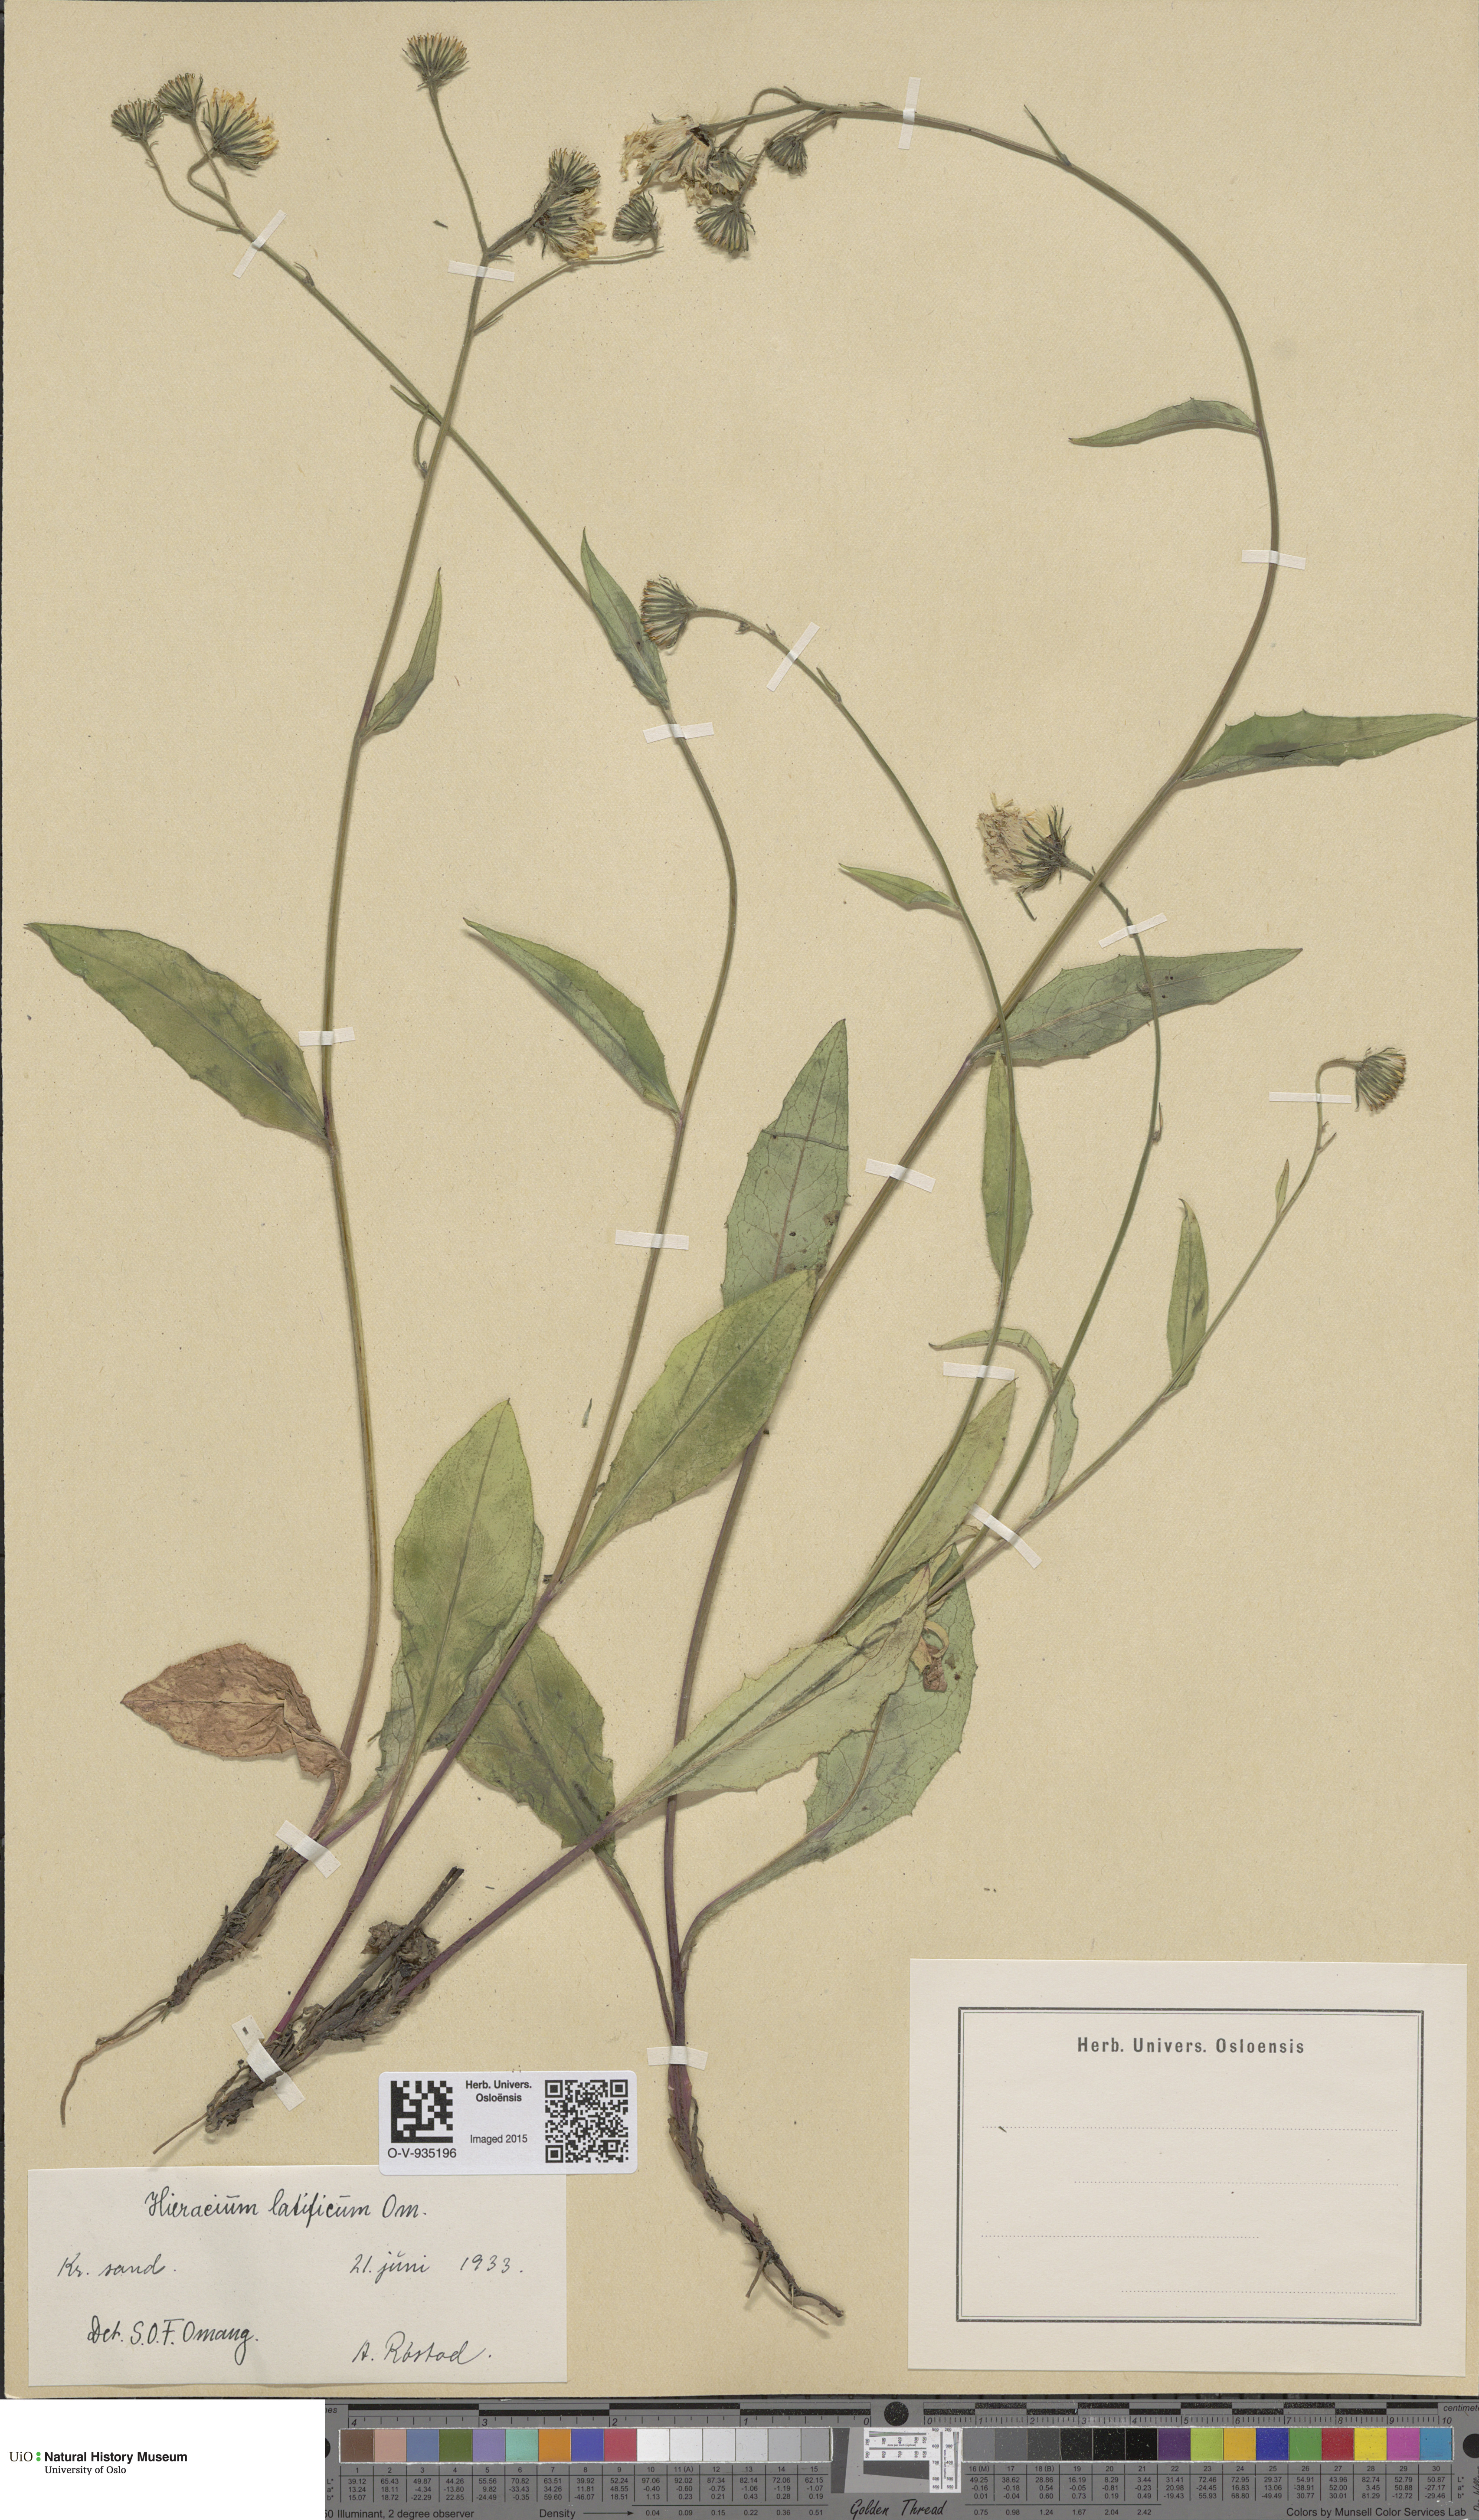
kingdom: Plantae
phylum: Tracheophyta
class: Magnoliopsida
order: Asterales
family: Asteraceae
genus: Hieracium
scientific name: Hieracium saxifragum
